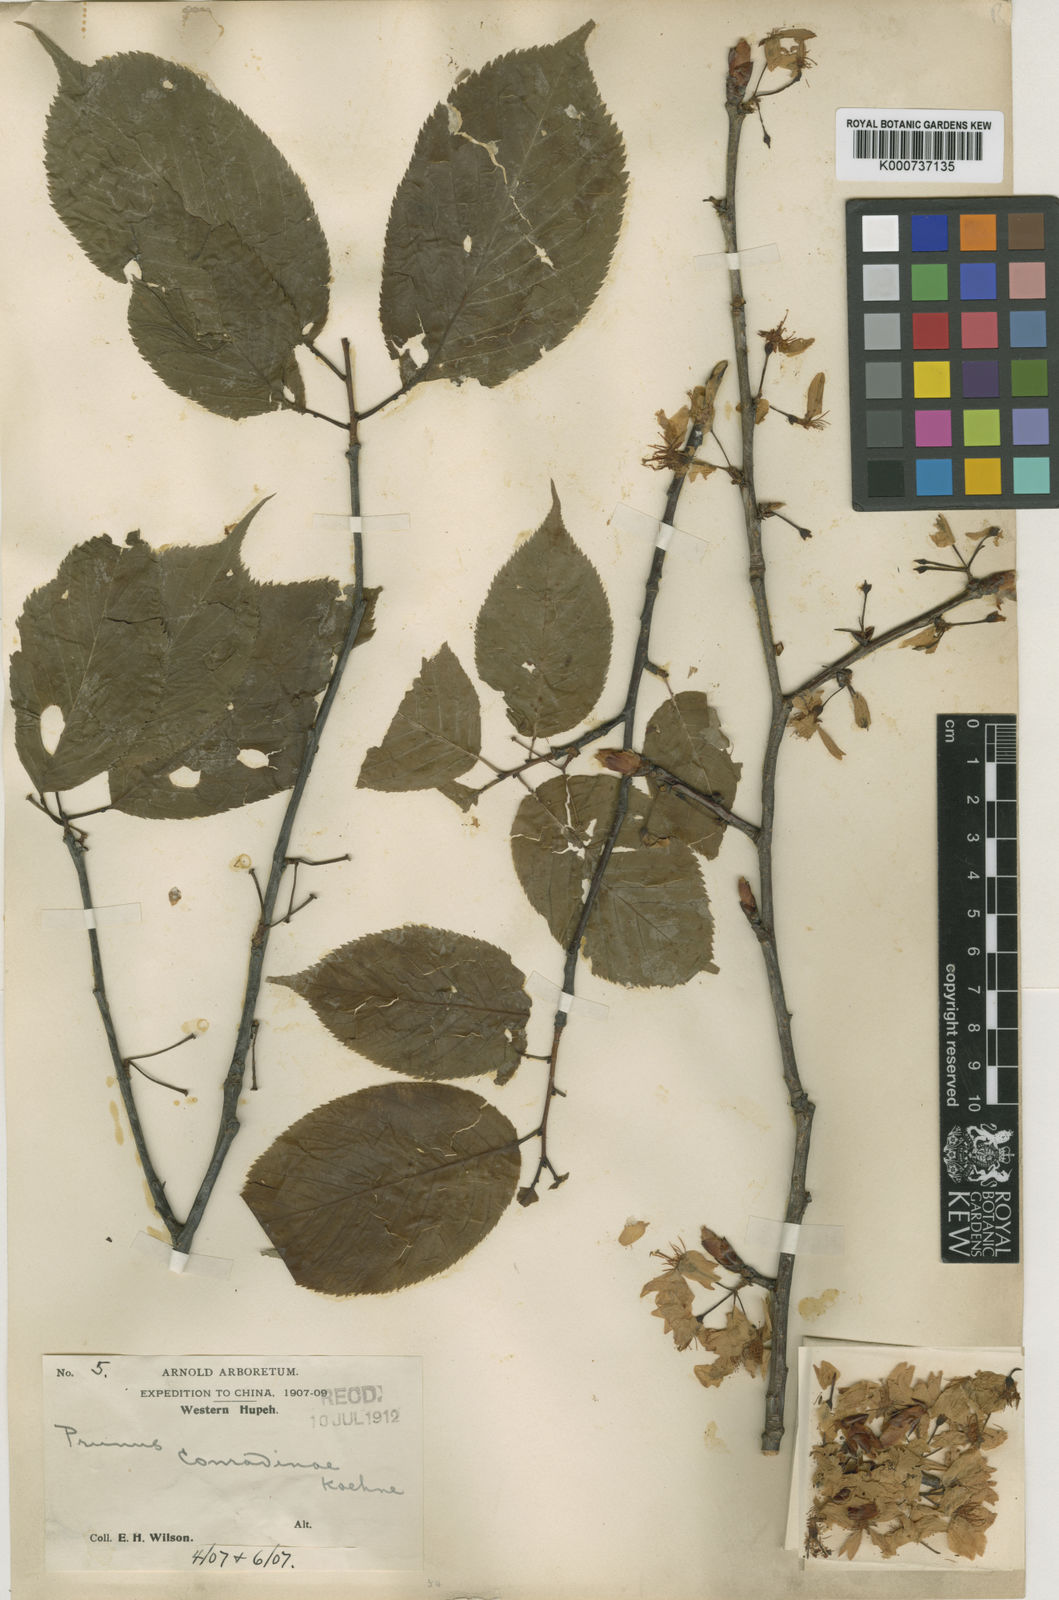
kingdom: Plantae
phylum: Tracheophyta
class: Magnoliopsida
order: Rosales
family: Rosaceae
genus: Prunus
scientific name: Prunus conradinae
